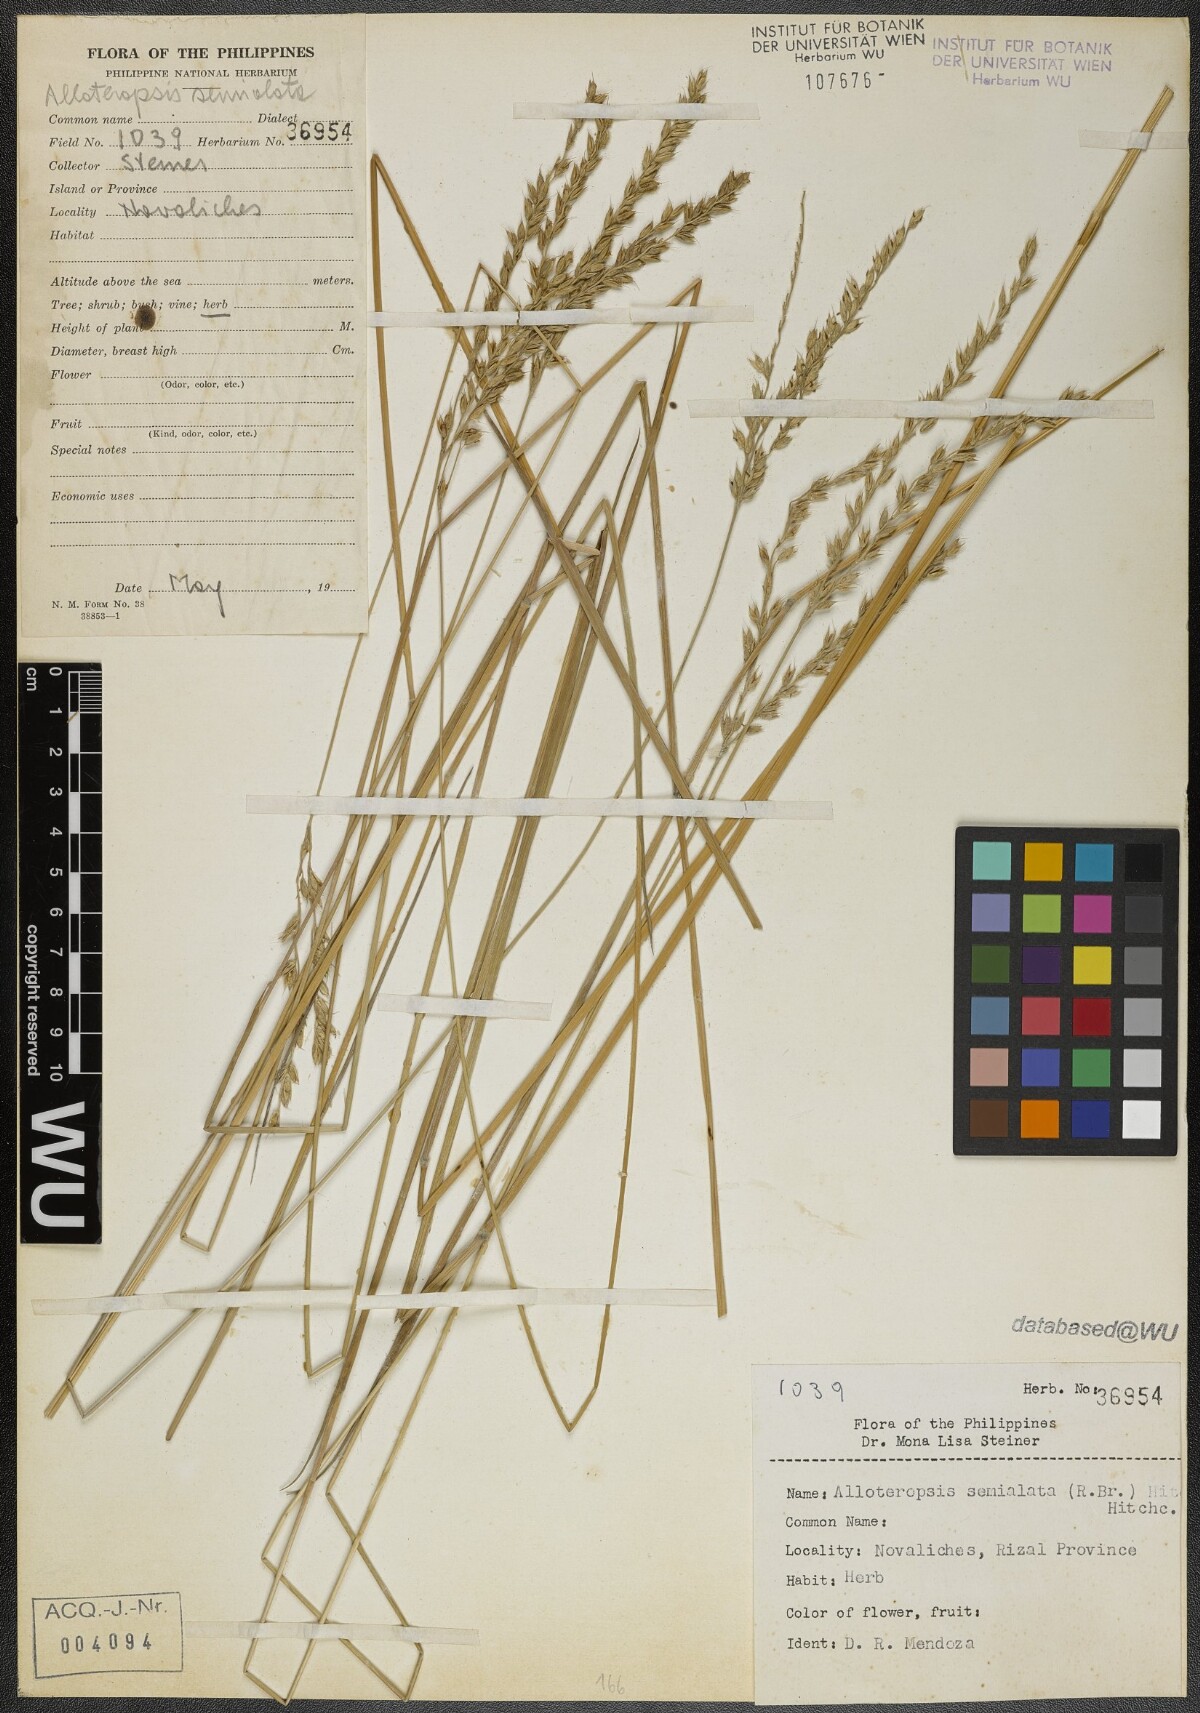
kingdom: Plantae
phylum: Tracheophyta
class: Liliopsida
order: Poales
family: Poaceae
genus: Alloteropsis
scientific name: Alloteropsis semialata
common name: Cockatoo grass
